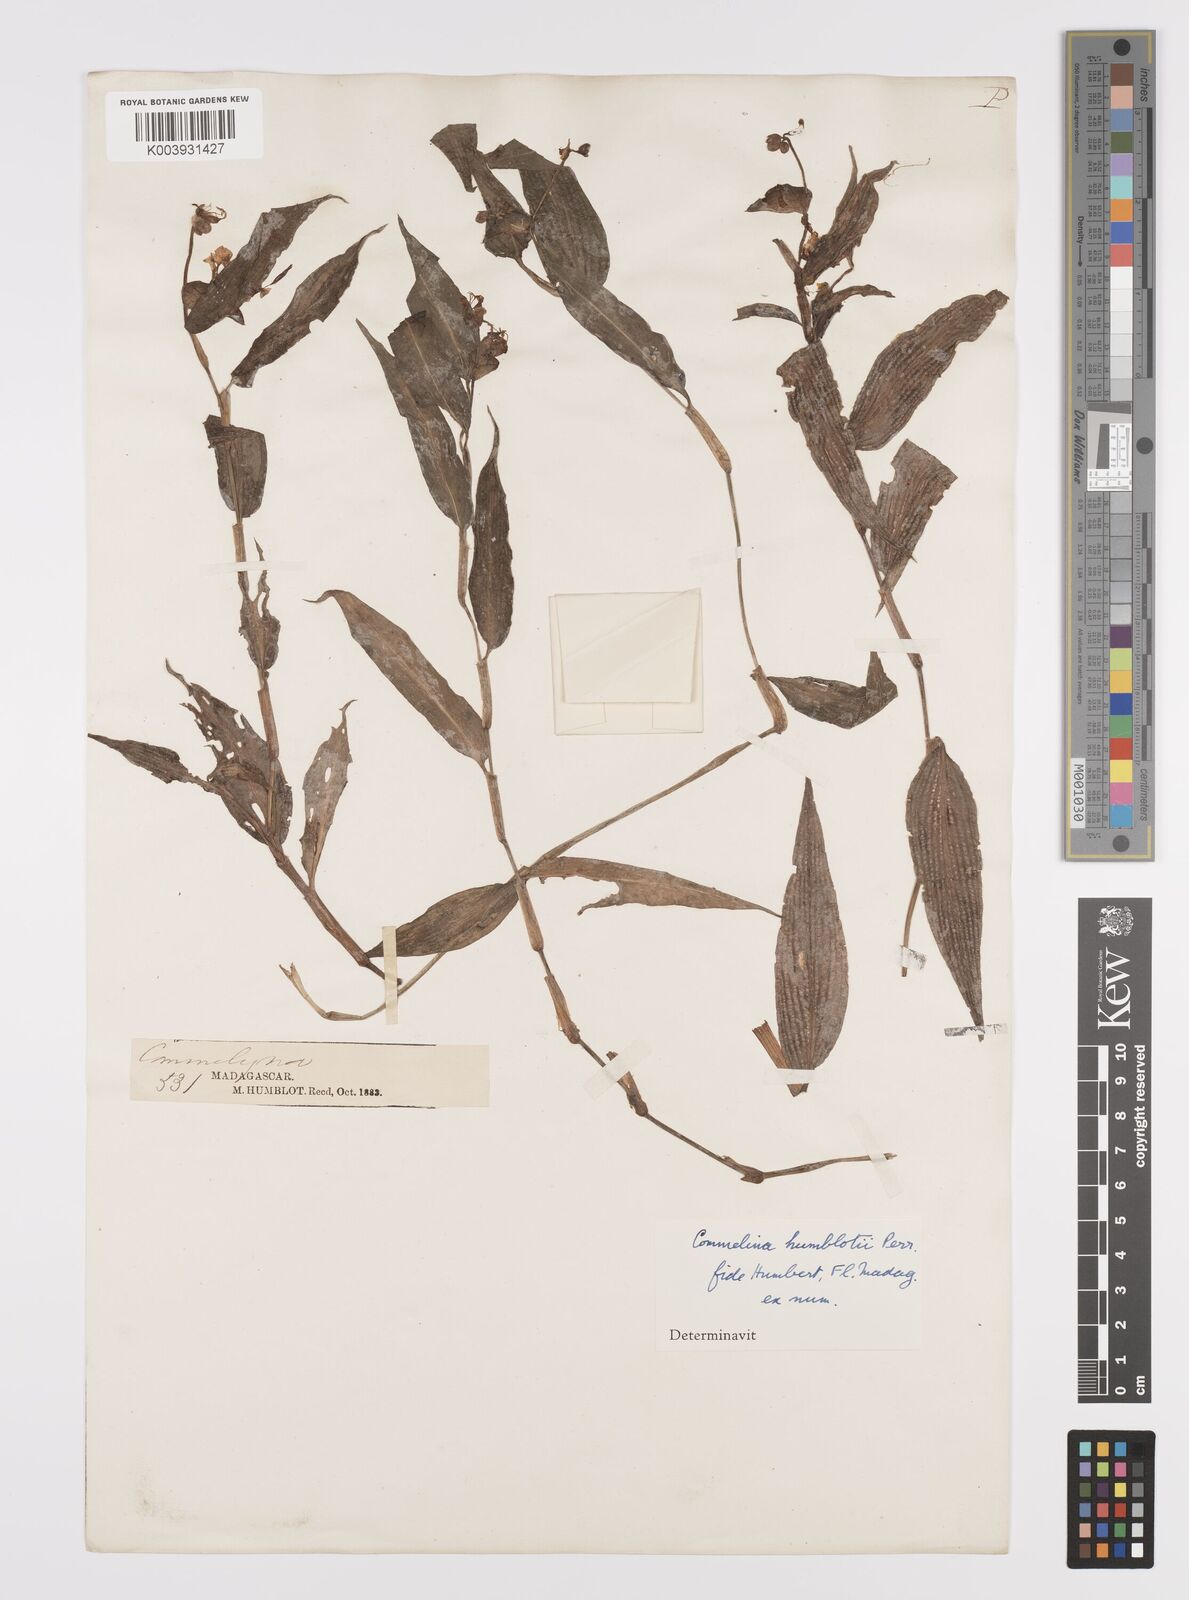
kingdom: Plantae
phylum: Tracheophyta
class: Liliopsida
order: Commelinales
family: Commelinaceae
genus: Commelina
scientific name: Commelina humblotii
